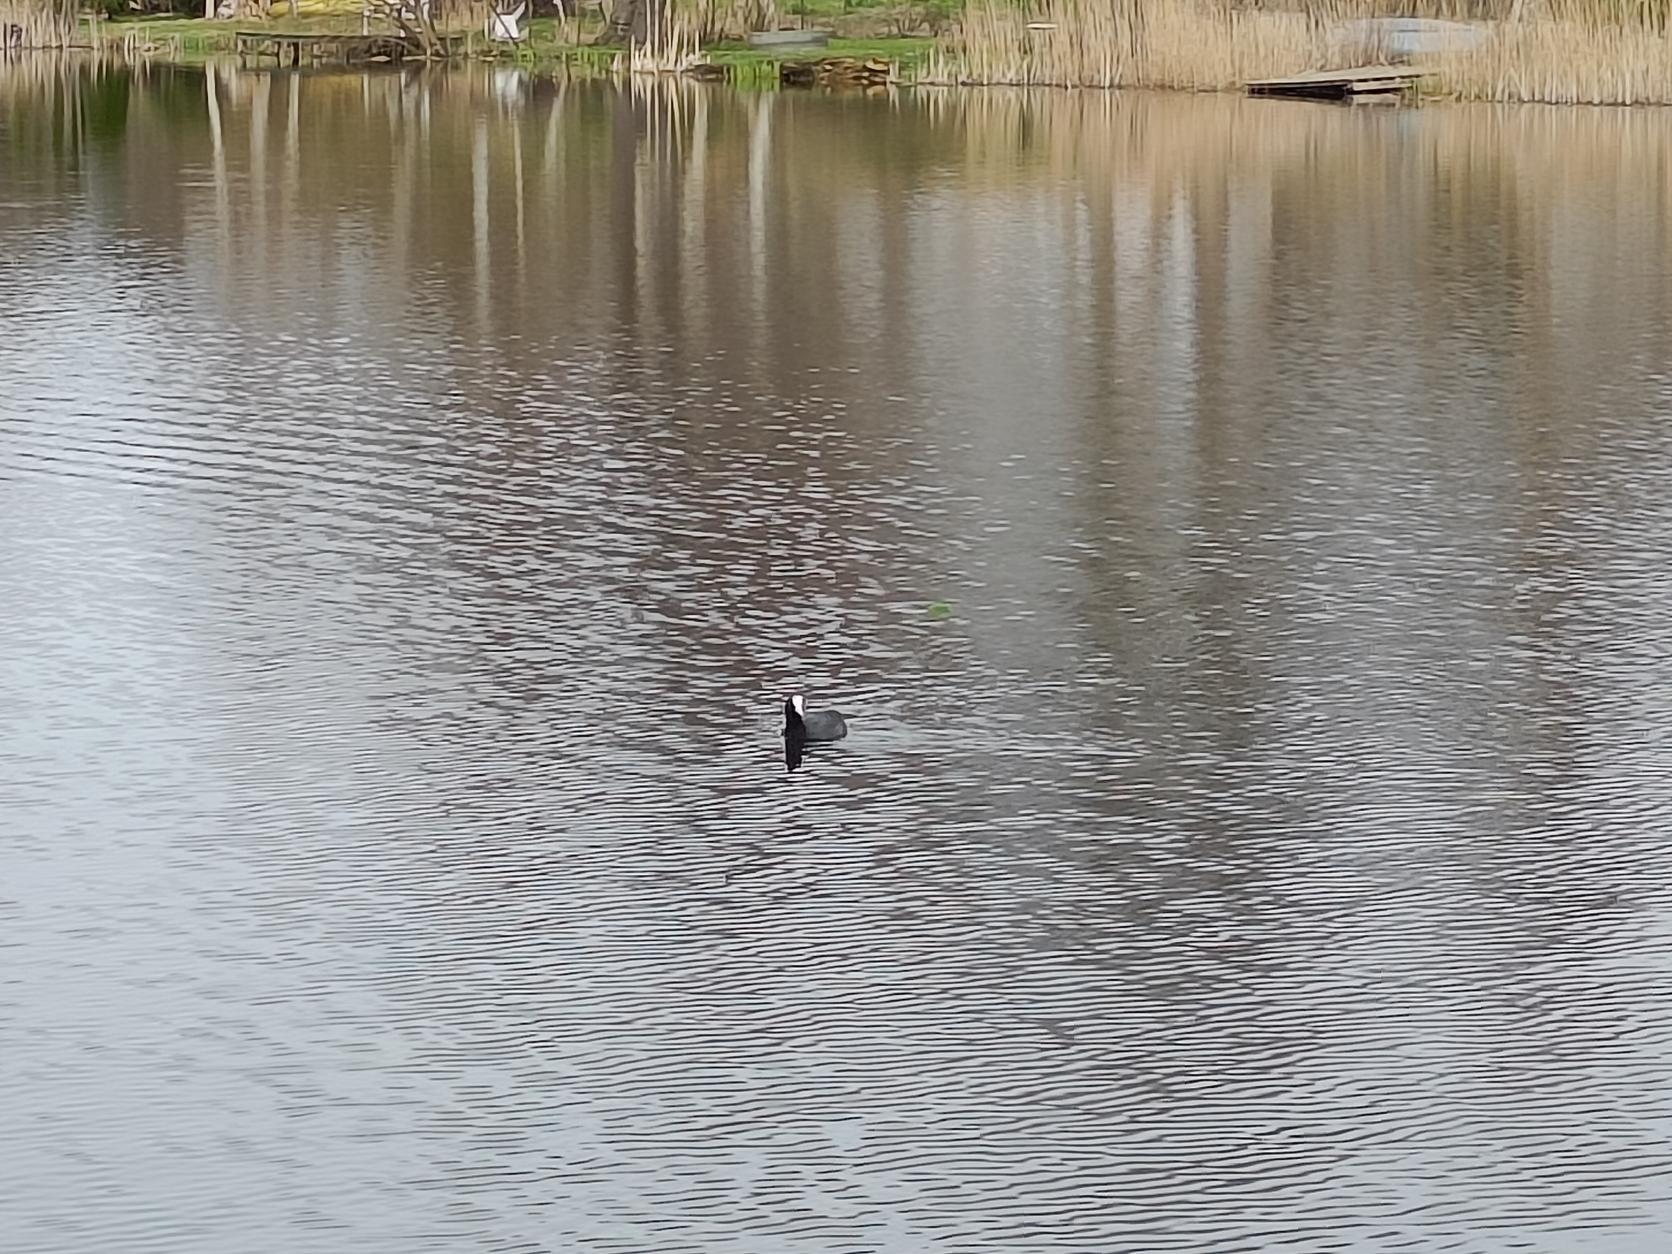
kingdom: Animalia
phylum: Chordata
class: Aves
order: Gruiformes
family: Rallidae
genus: Fulica
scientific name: Fulica atra
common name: Blishøne
